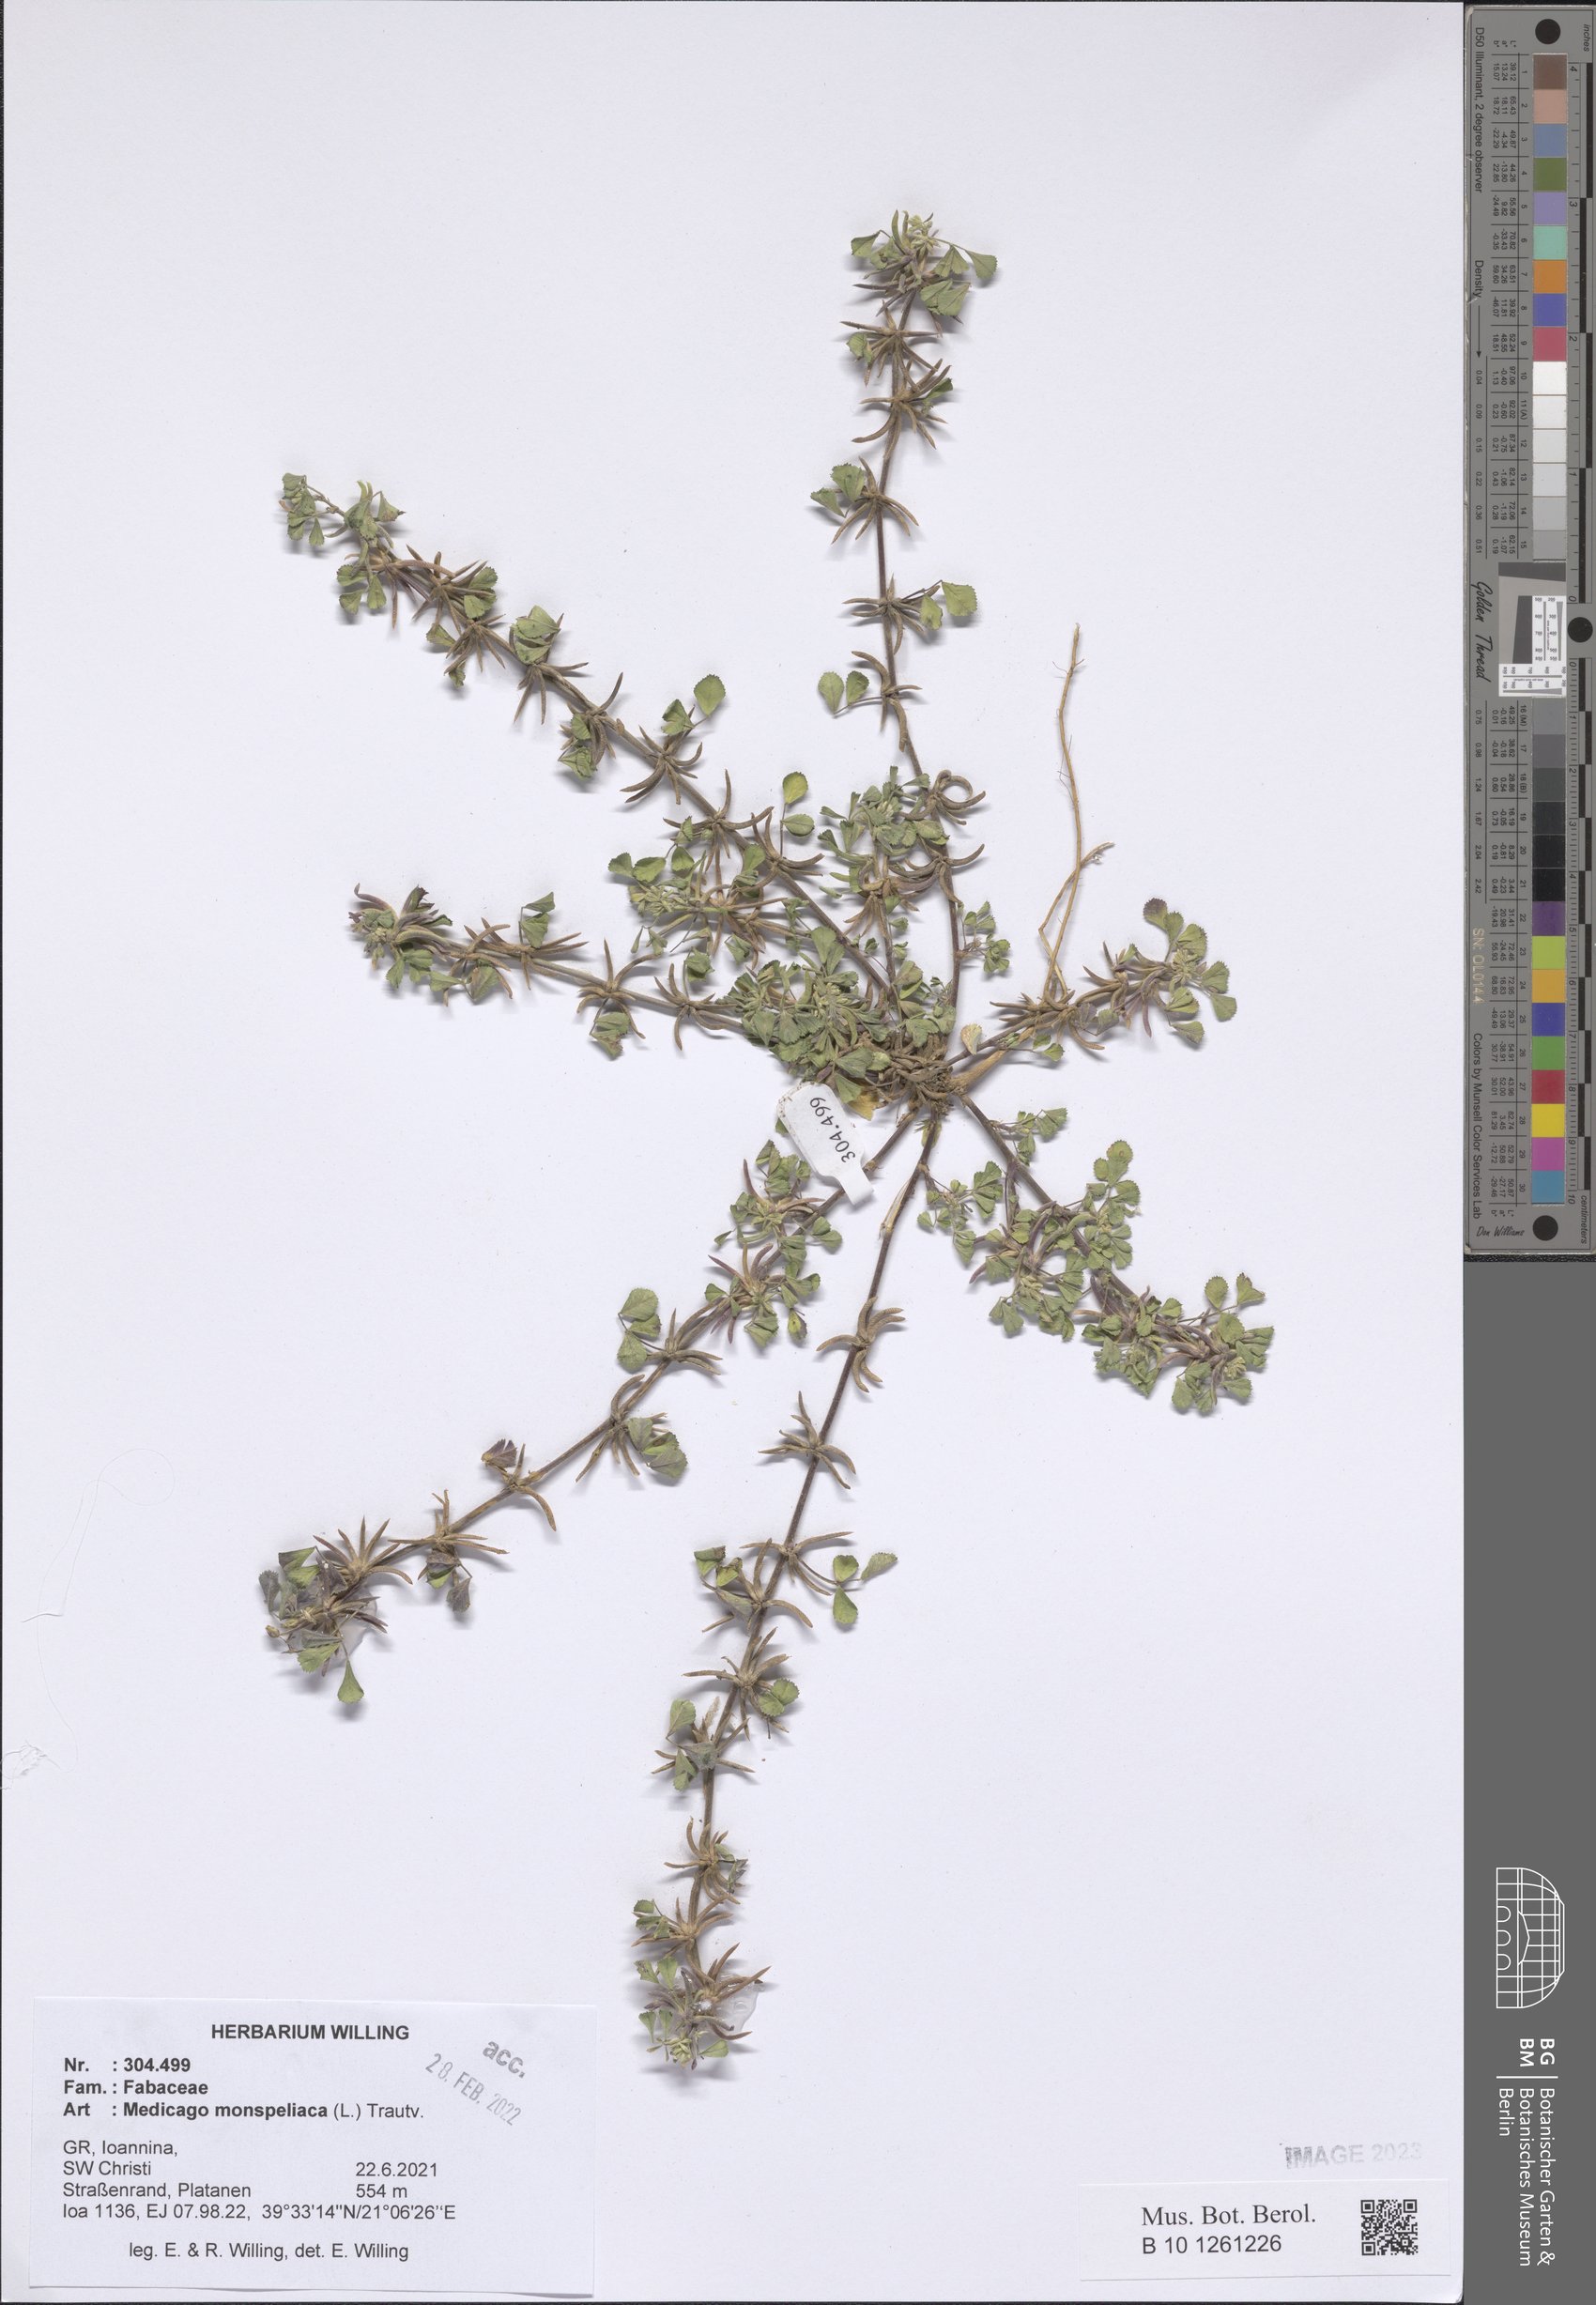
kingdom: Plantae
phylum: Tracheophyta
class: Magnoliopsida
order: Fabales
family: Fabaceae
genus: Medicago
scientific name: Medicago monspeliaca
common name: Hairy medick
